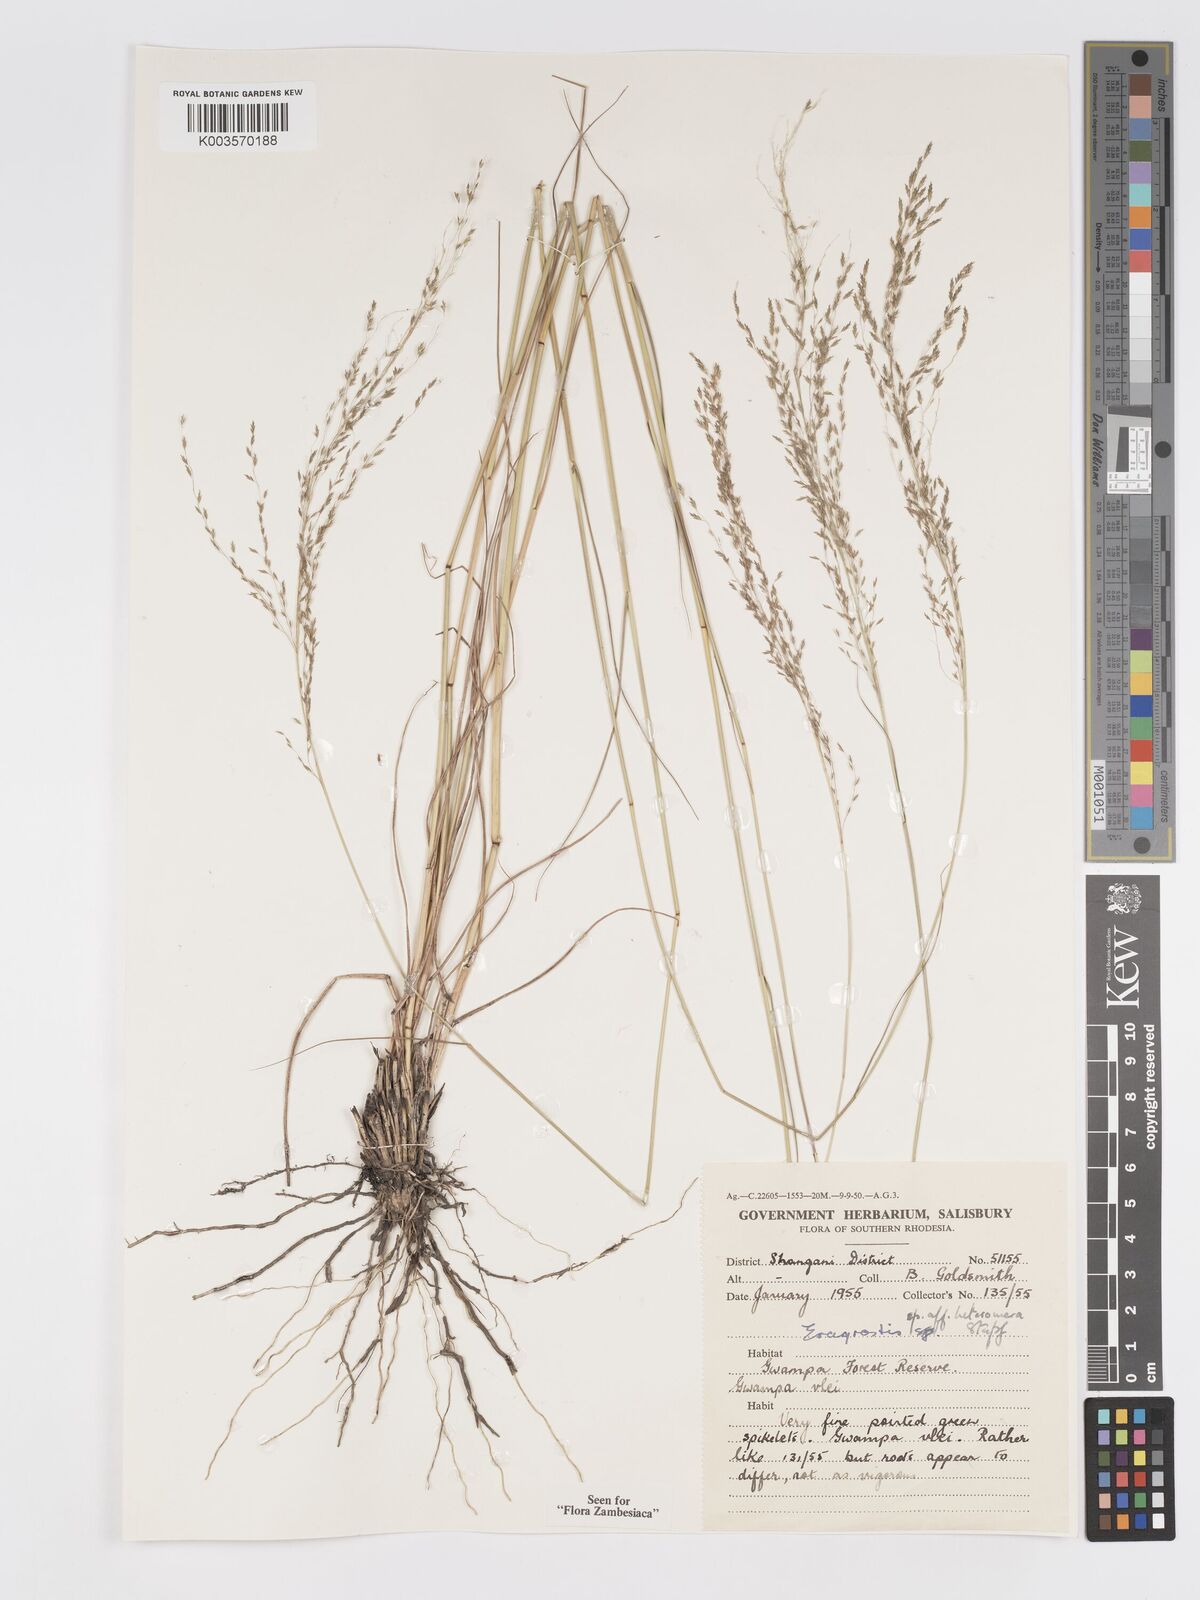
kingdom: Plantae
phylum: Tracheophyta
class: Liliopsida
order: Poales
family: Poaceae
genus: Eragrostis
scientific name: Eragrostis heteromera
